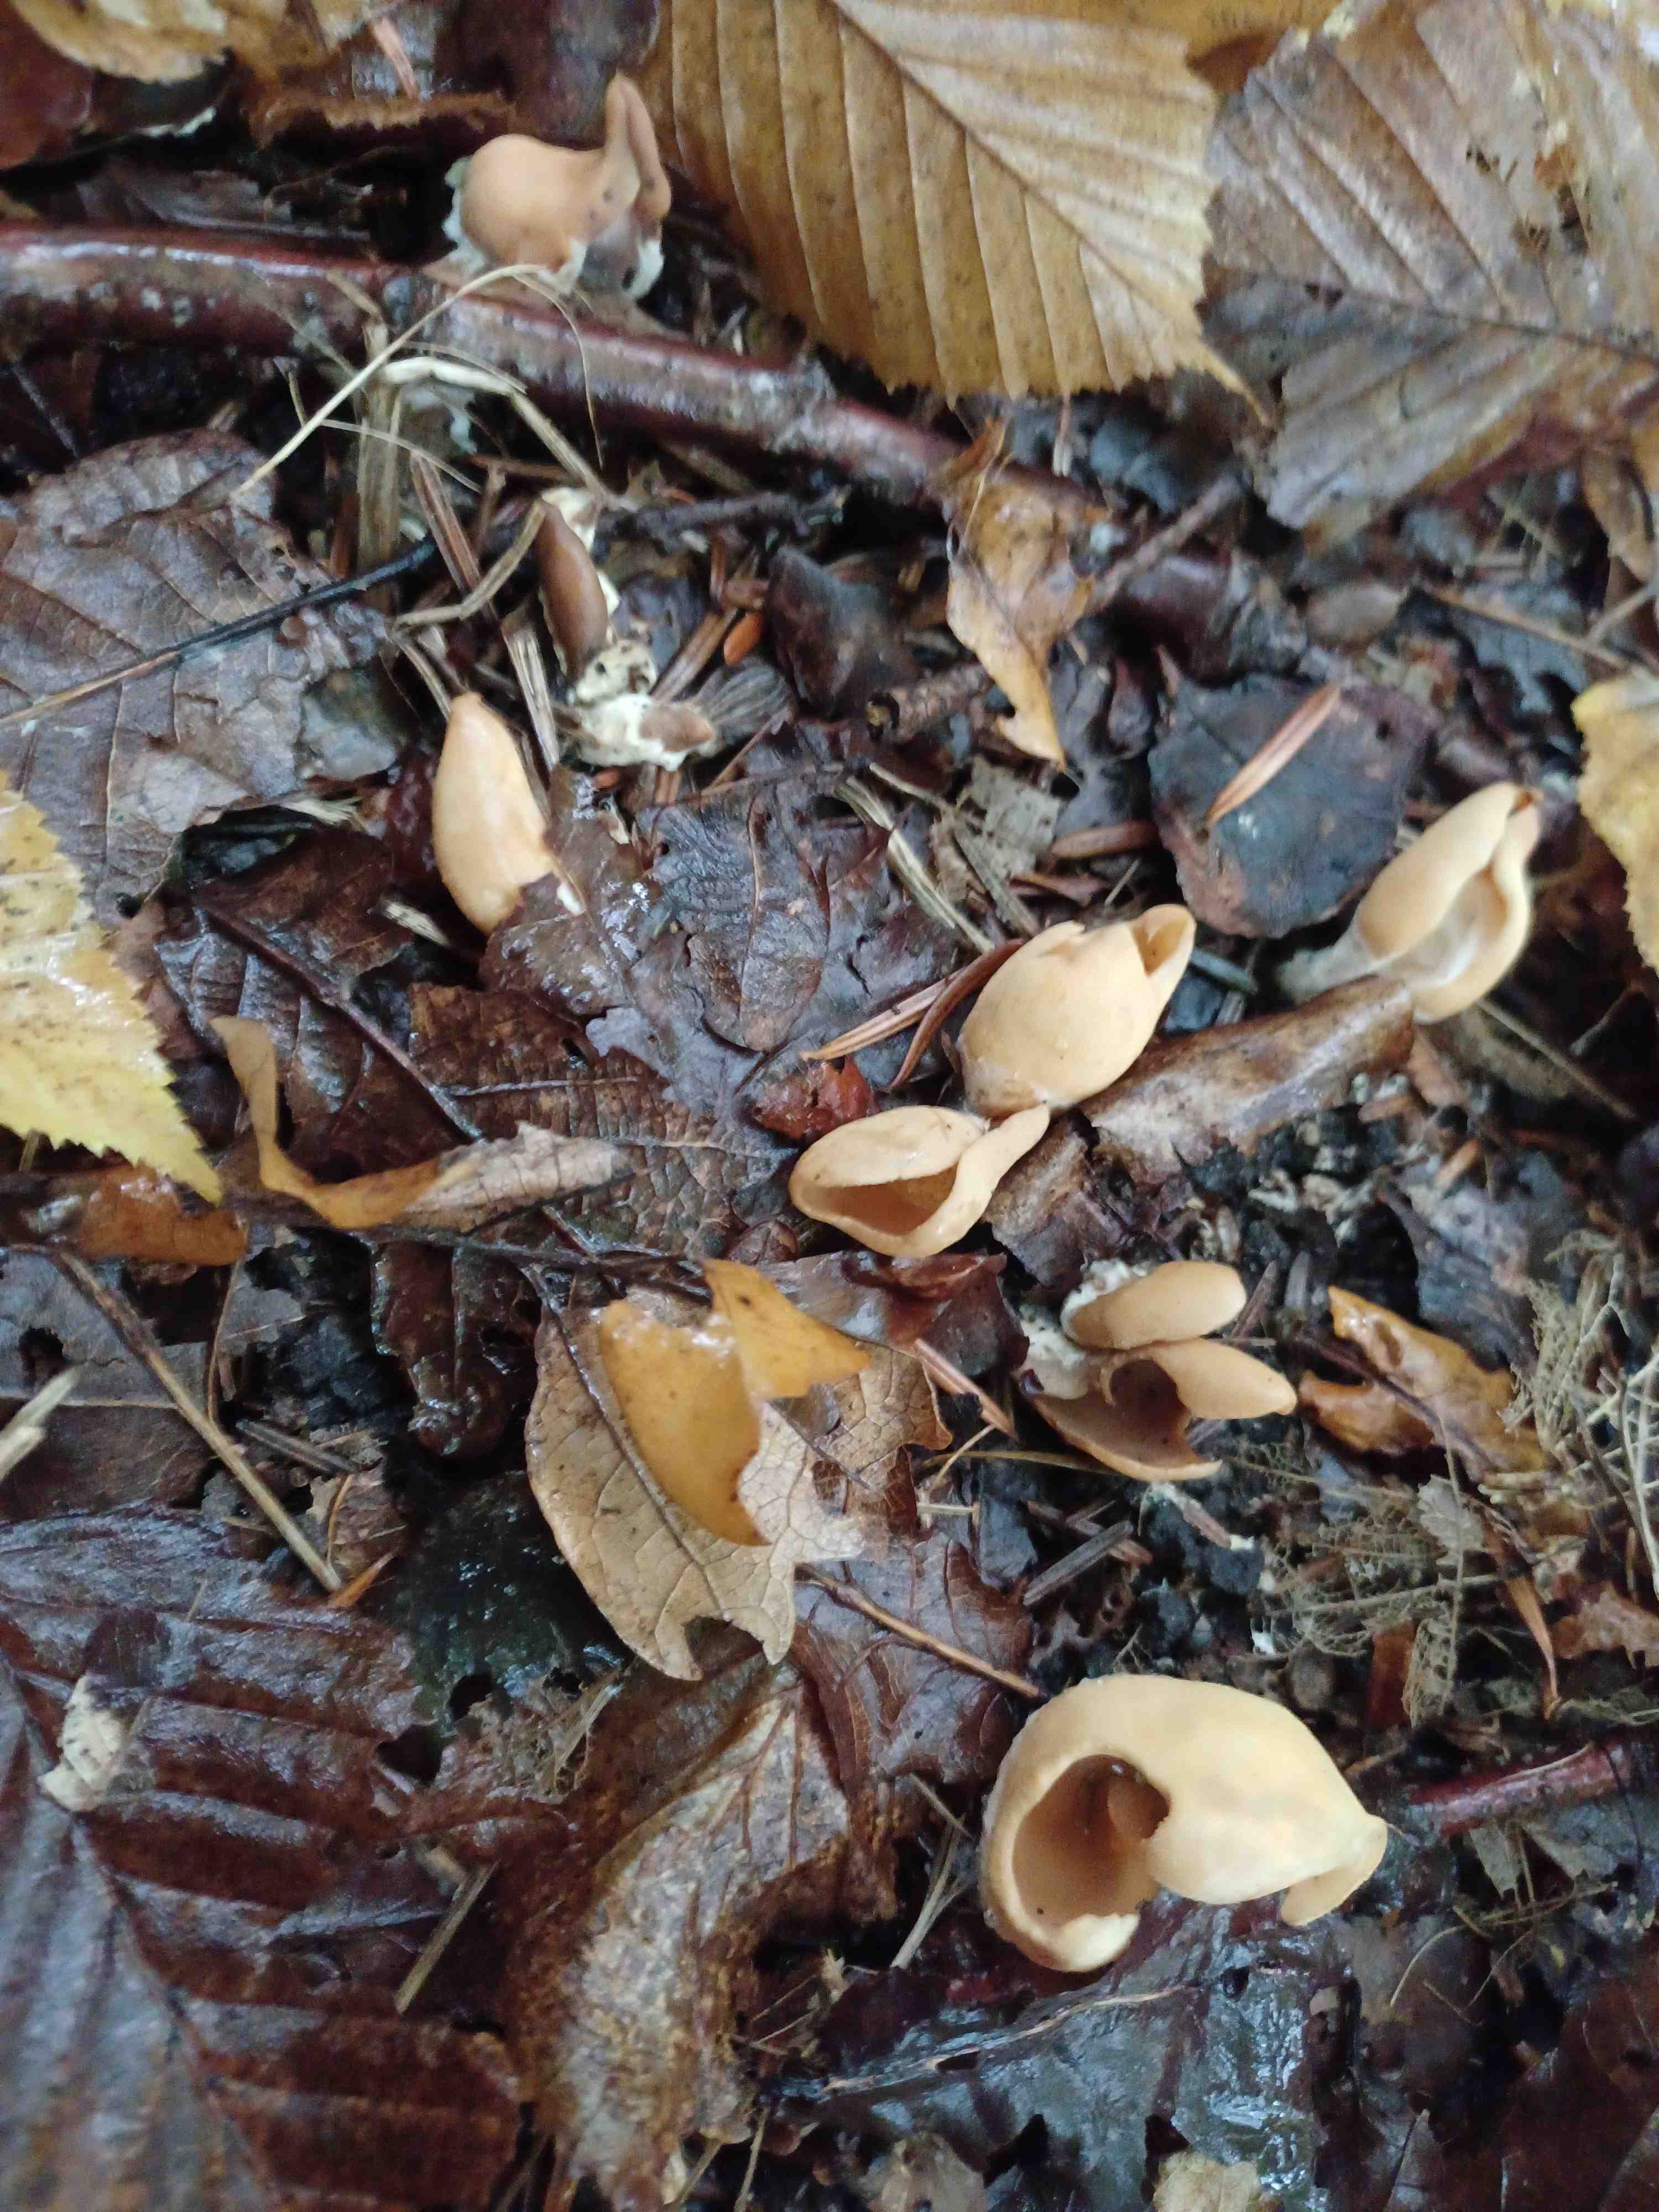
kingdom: Fungi
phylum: Ascomycota
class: Pezizomycetes
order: Pezizales
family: Otideaceae
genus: Otidea
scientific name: Otidea onotica
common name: æsel-ørebæger
